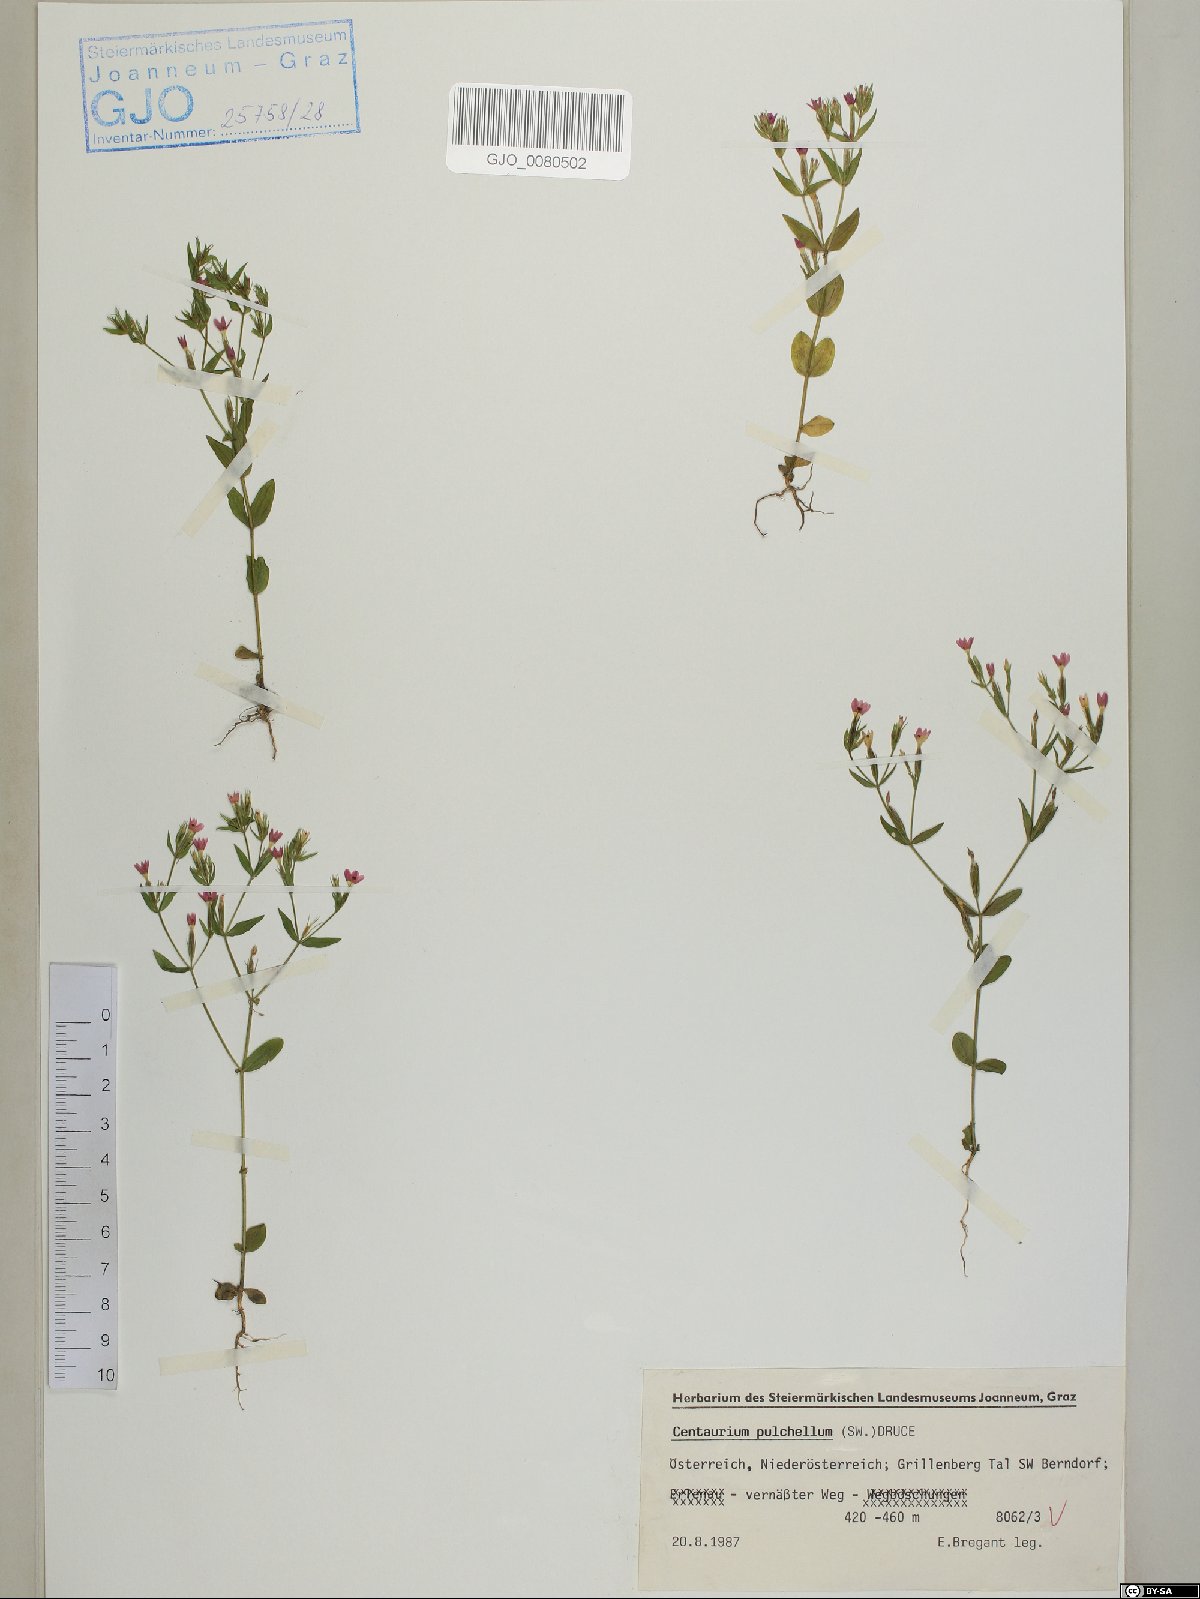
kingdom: Plantae
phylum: Tracheophyta
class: Magnoliopsida
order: Gentianales
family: Gentianaceae
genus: Centaurium
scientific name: Centaurium pulchellum
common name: Lesser centaury
